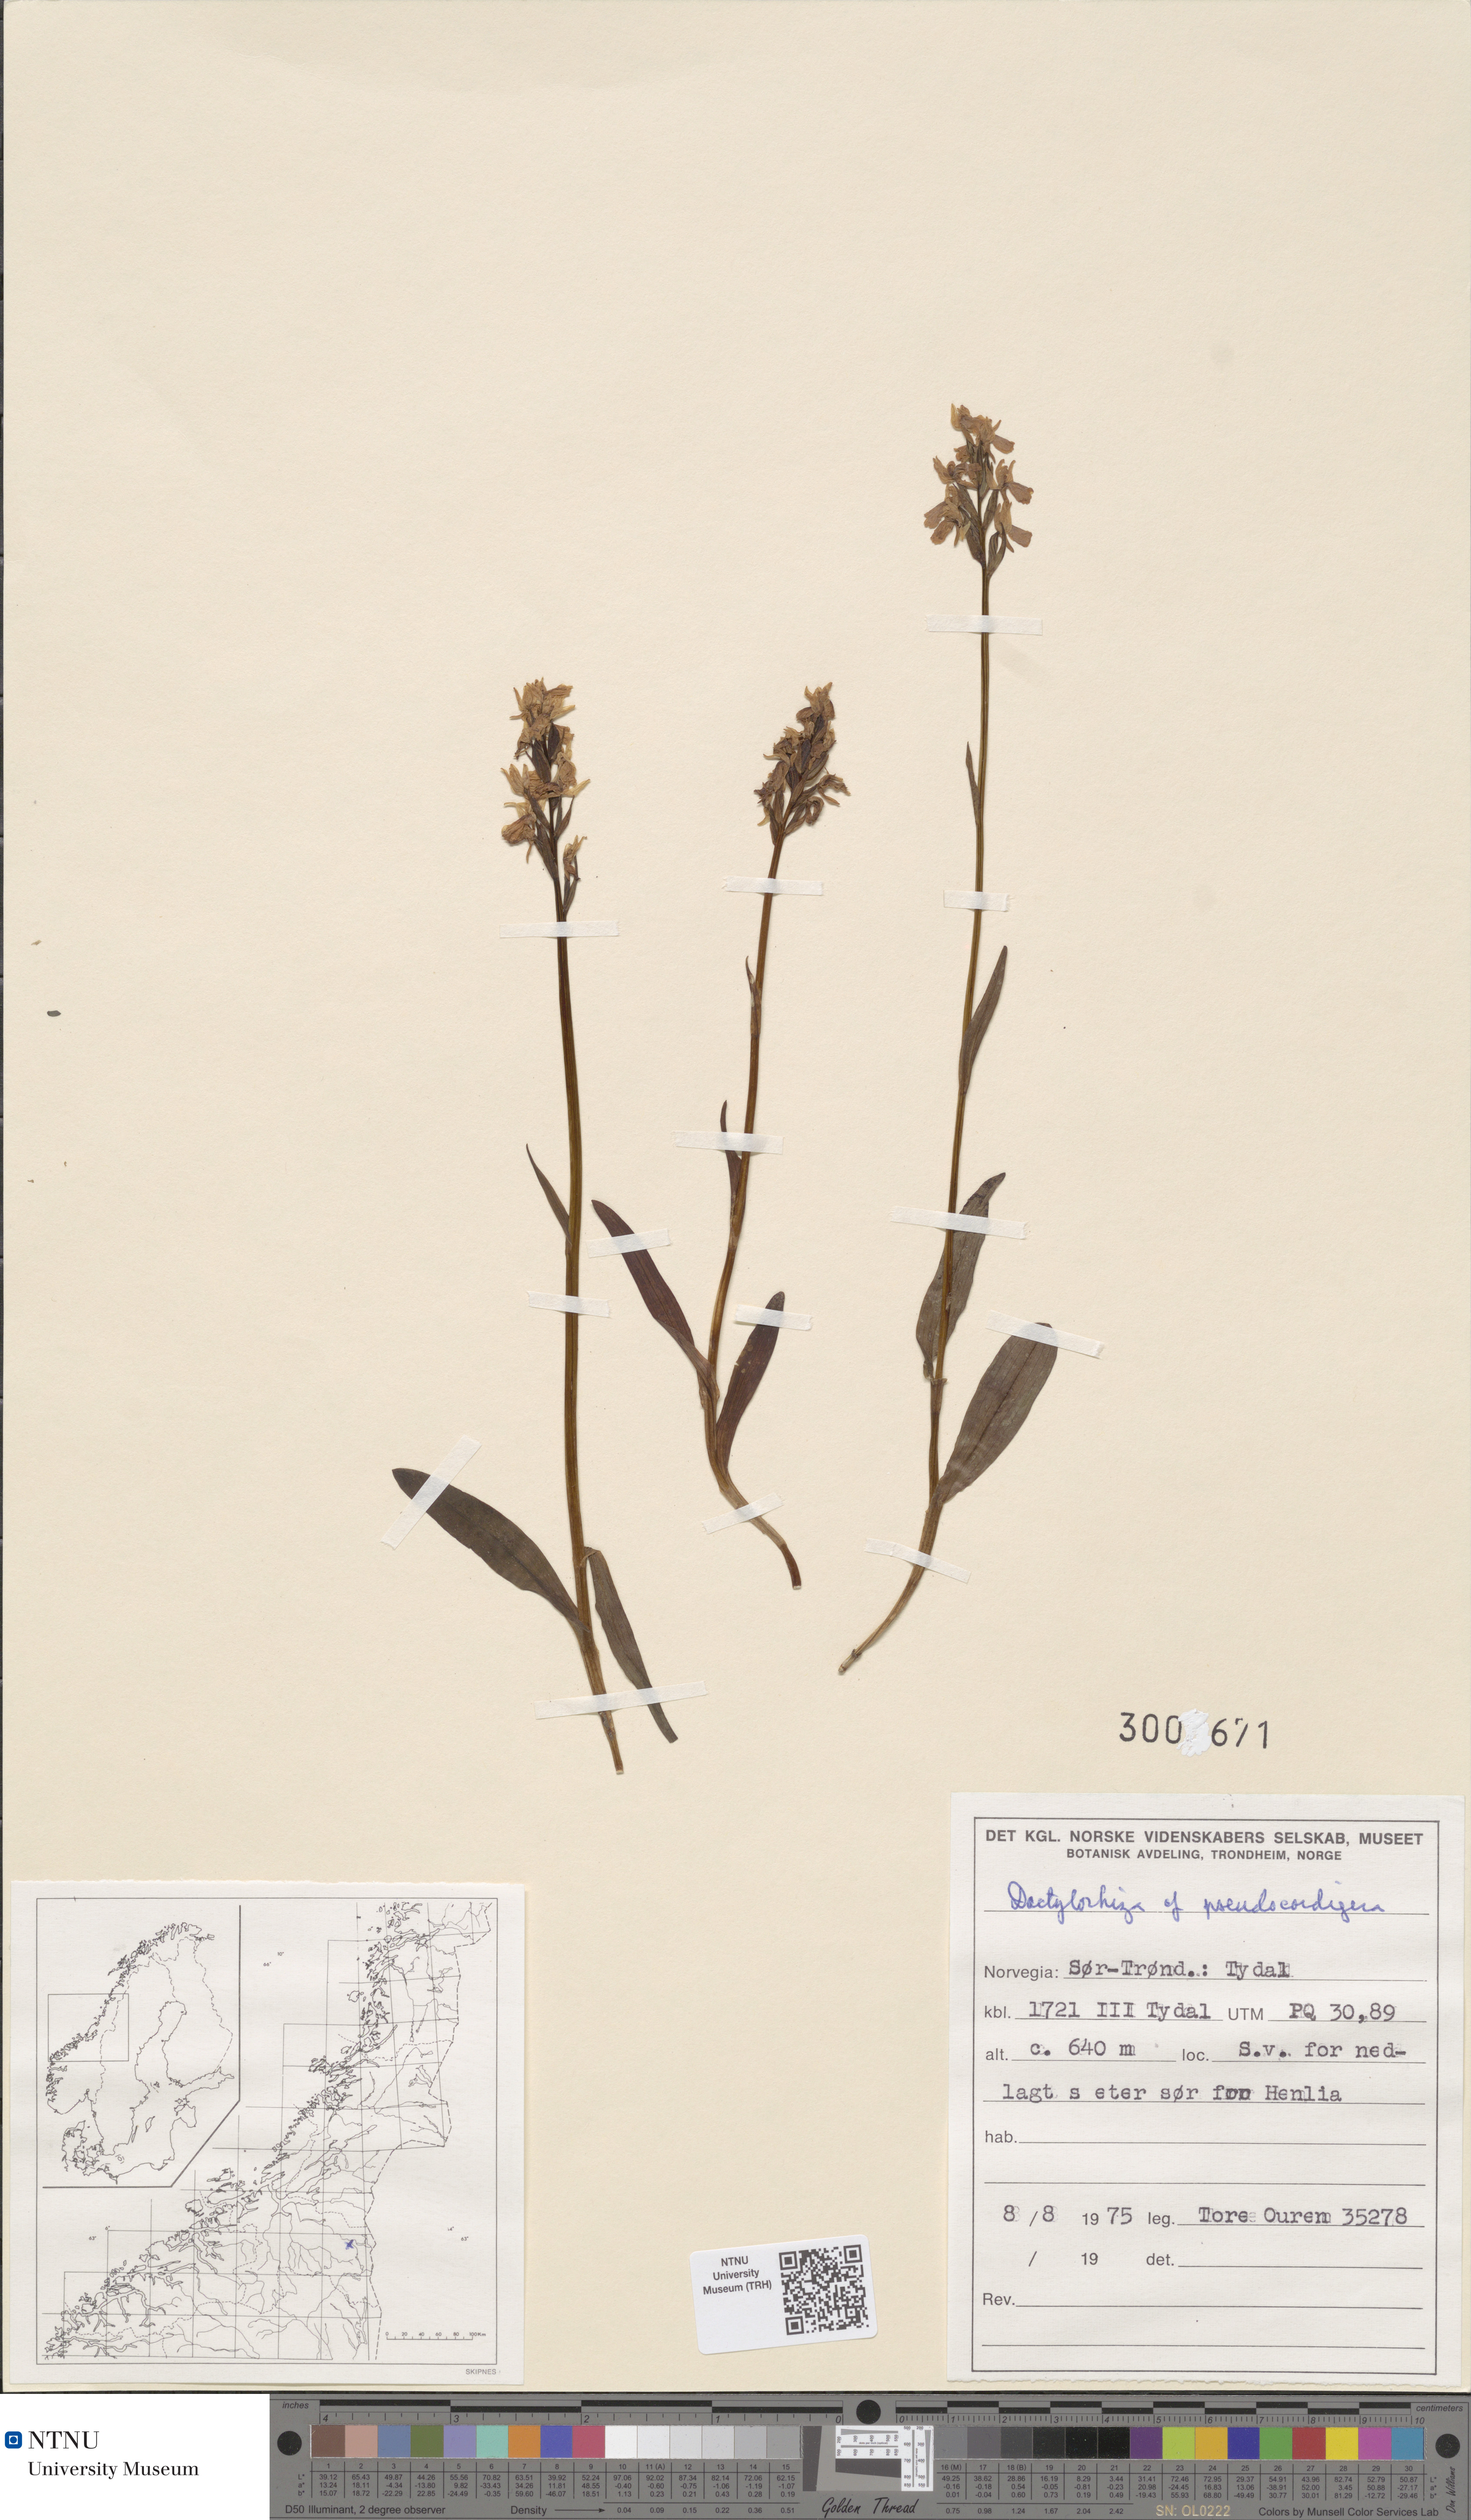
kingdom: Plantae
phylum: Tracheophyta
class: Liliopsida
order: Asparagales
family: Orchidaceae
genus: Dactylorhiza
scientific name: Dactylorhiza majalis
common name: Marsh orchid
